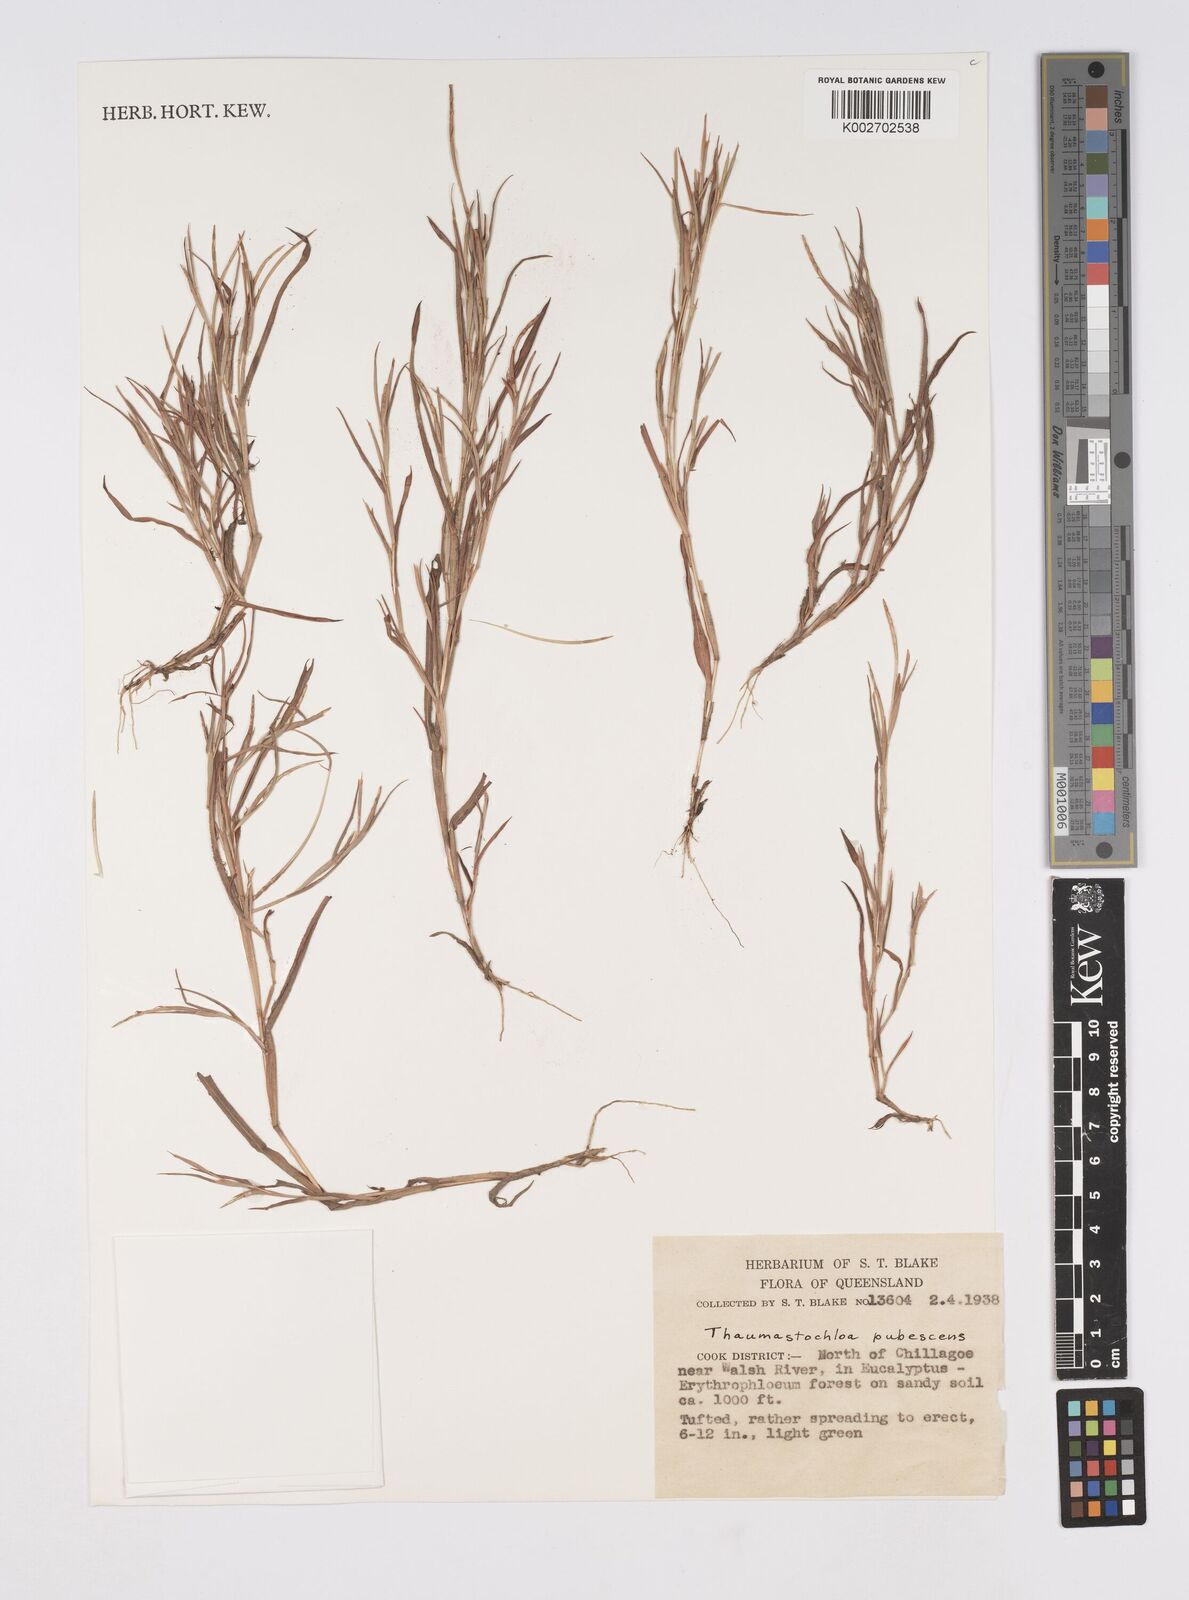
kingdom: Plantae
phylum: Tracheophyta
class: Liliopsida
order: Poales
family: Poaceae
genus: Thaumastochloa
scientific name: Thaumastochloa pubescens
